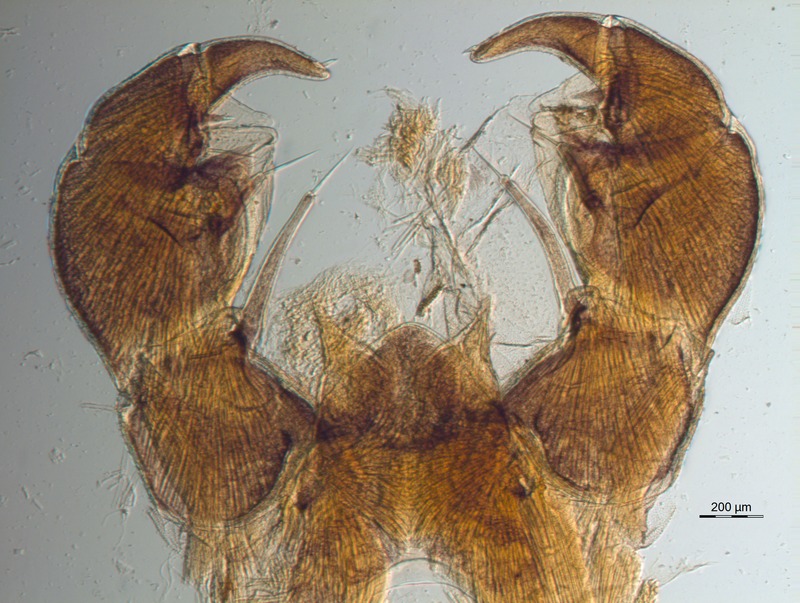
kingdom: Animalia
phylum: Arthropoda
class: Diplopoda
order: Glomerida
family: Glomeridae
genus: Glomeris
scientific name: Glomeris connexa
